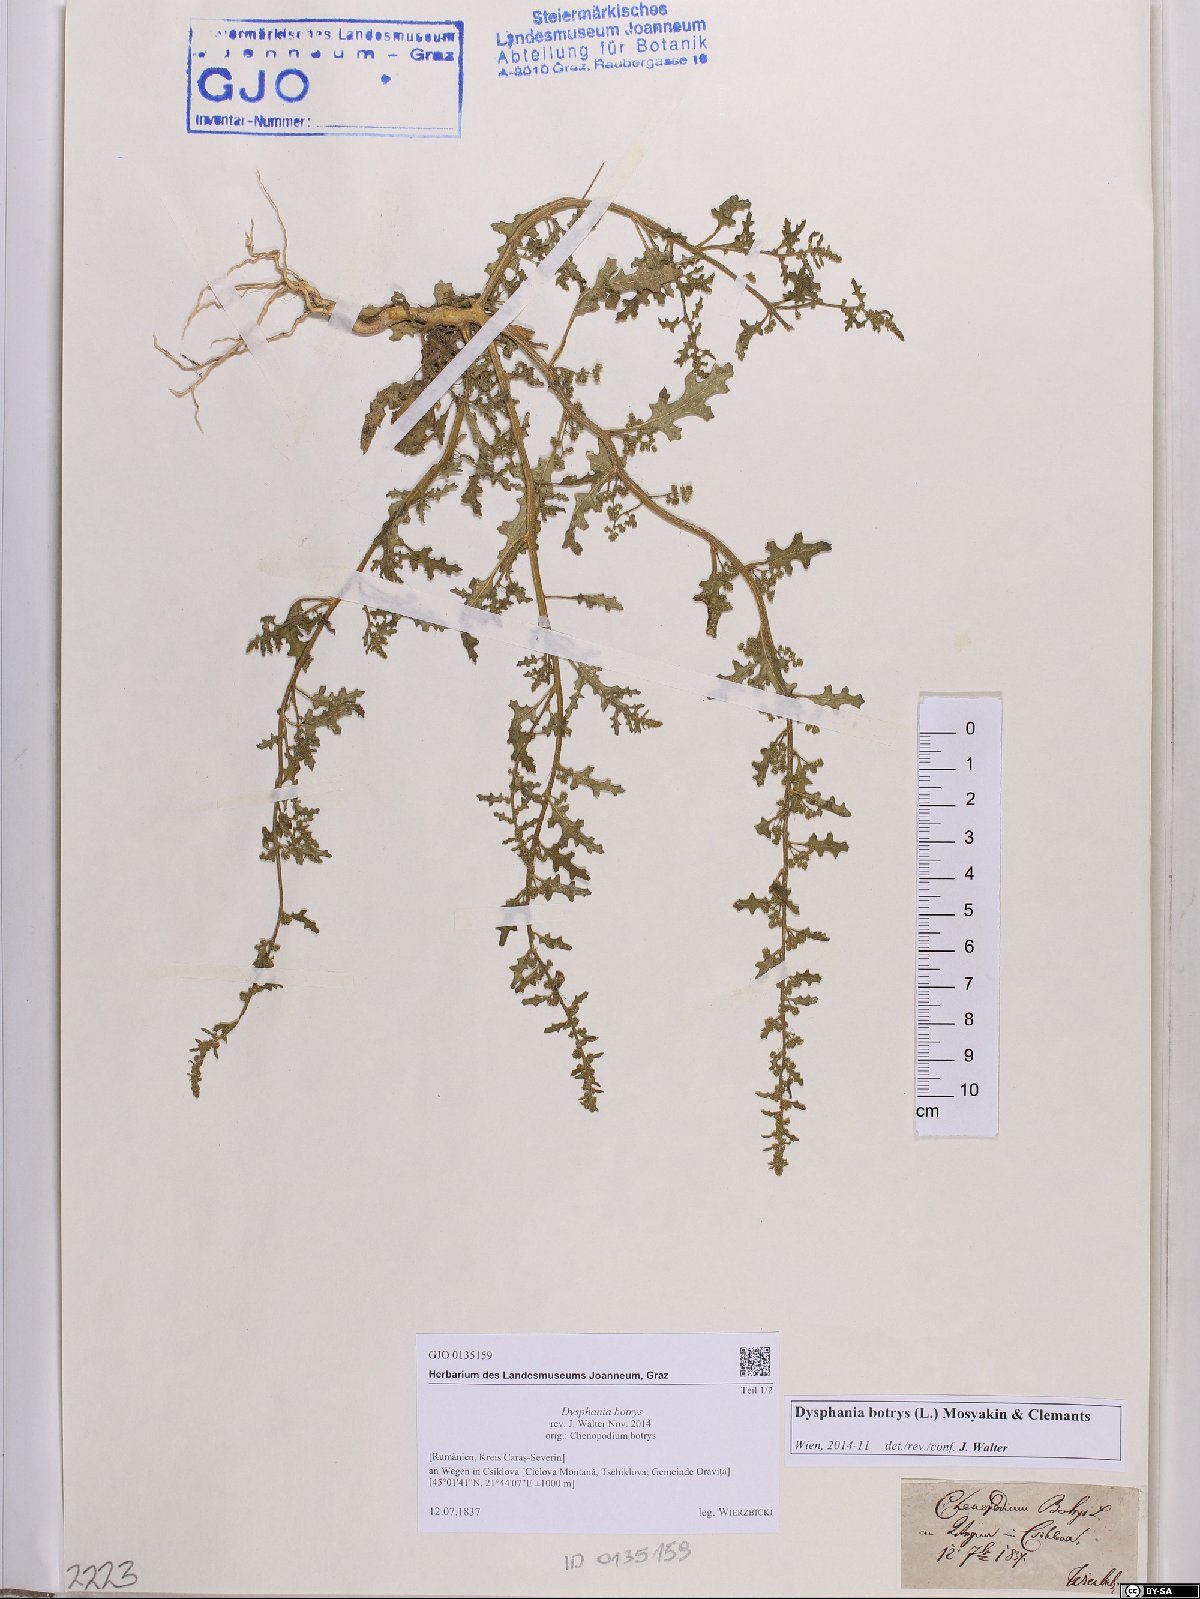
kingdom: Plantae
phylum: Tracheophyta
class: Magnoliopsida
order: Caryophyllales
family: Amaranthaceae
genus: Dysphania
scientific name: Dysphania botrys
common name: Feather-geranium
